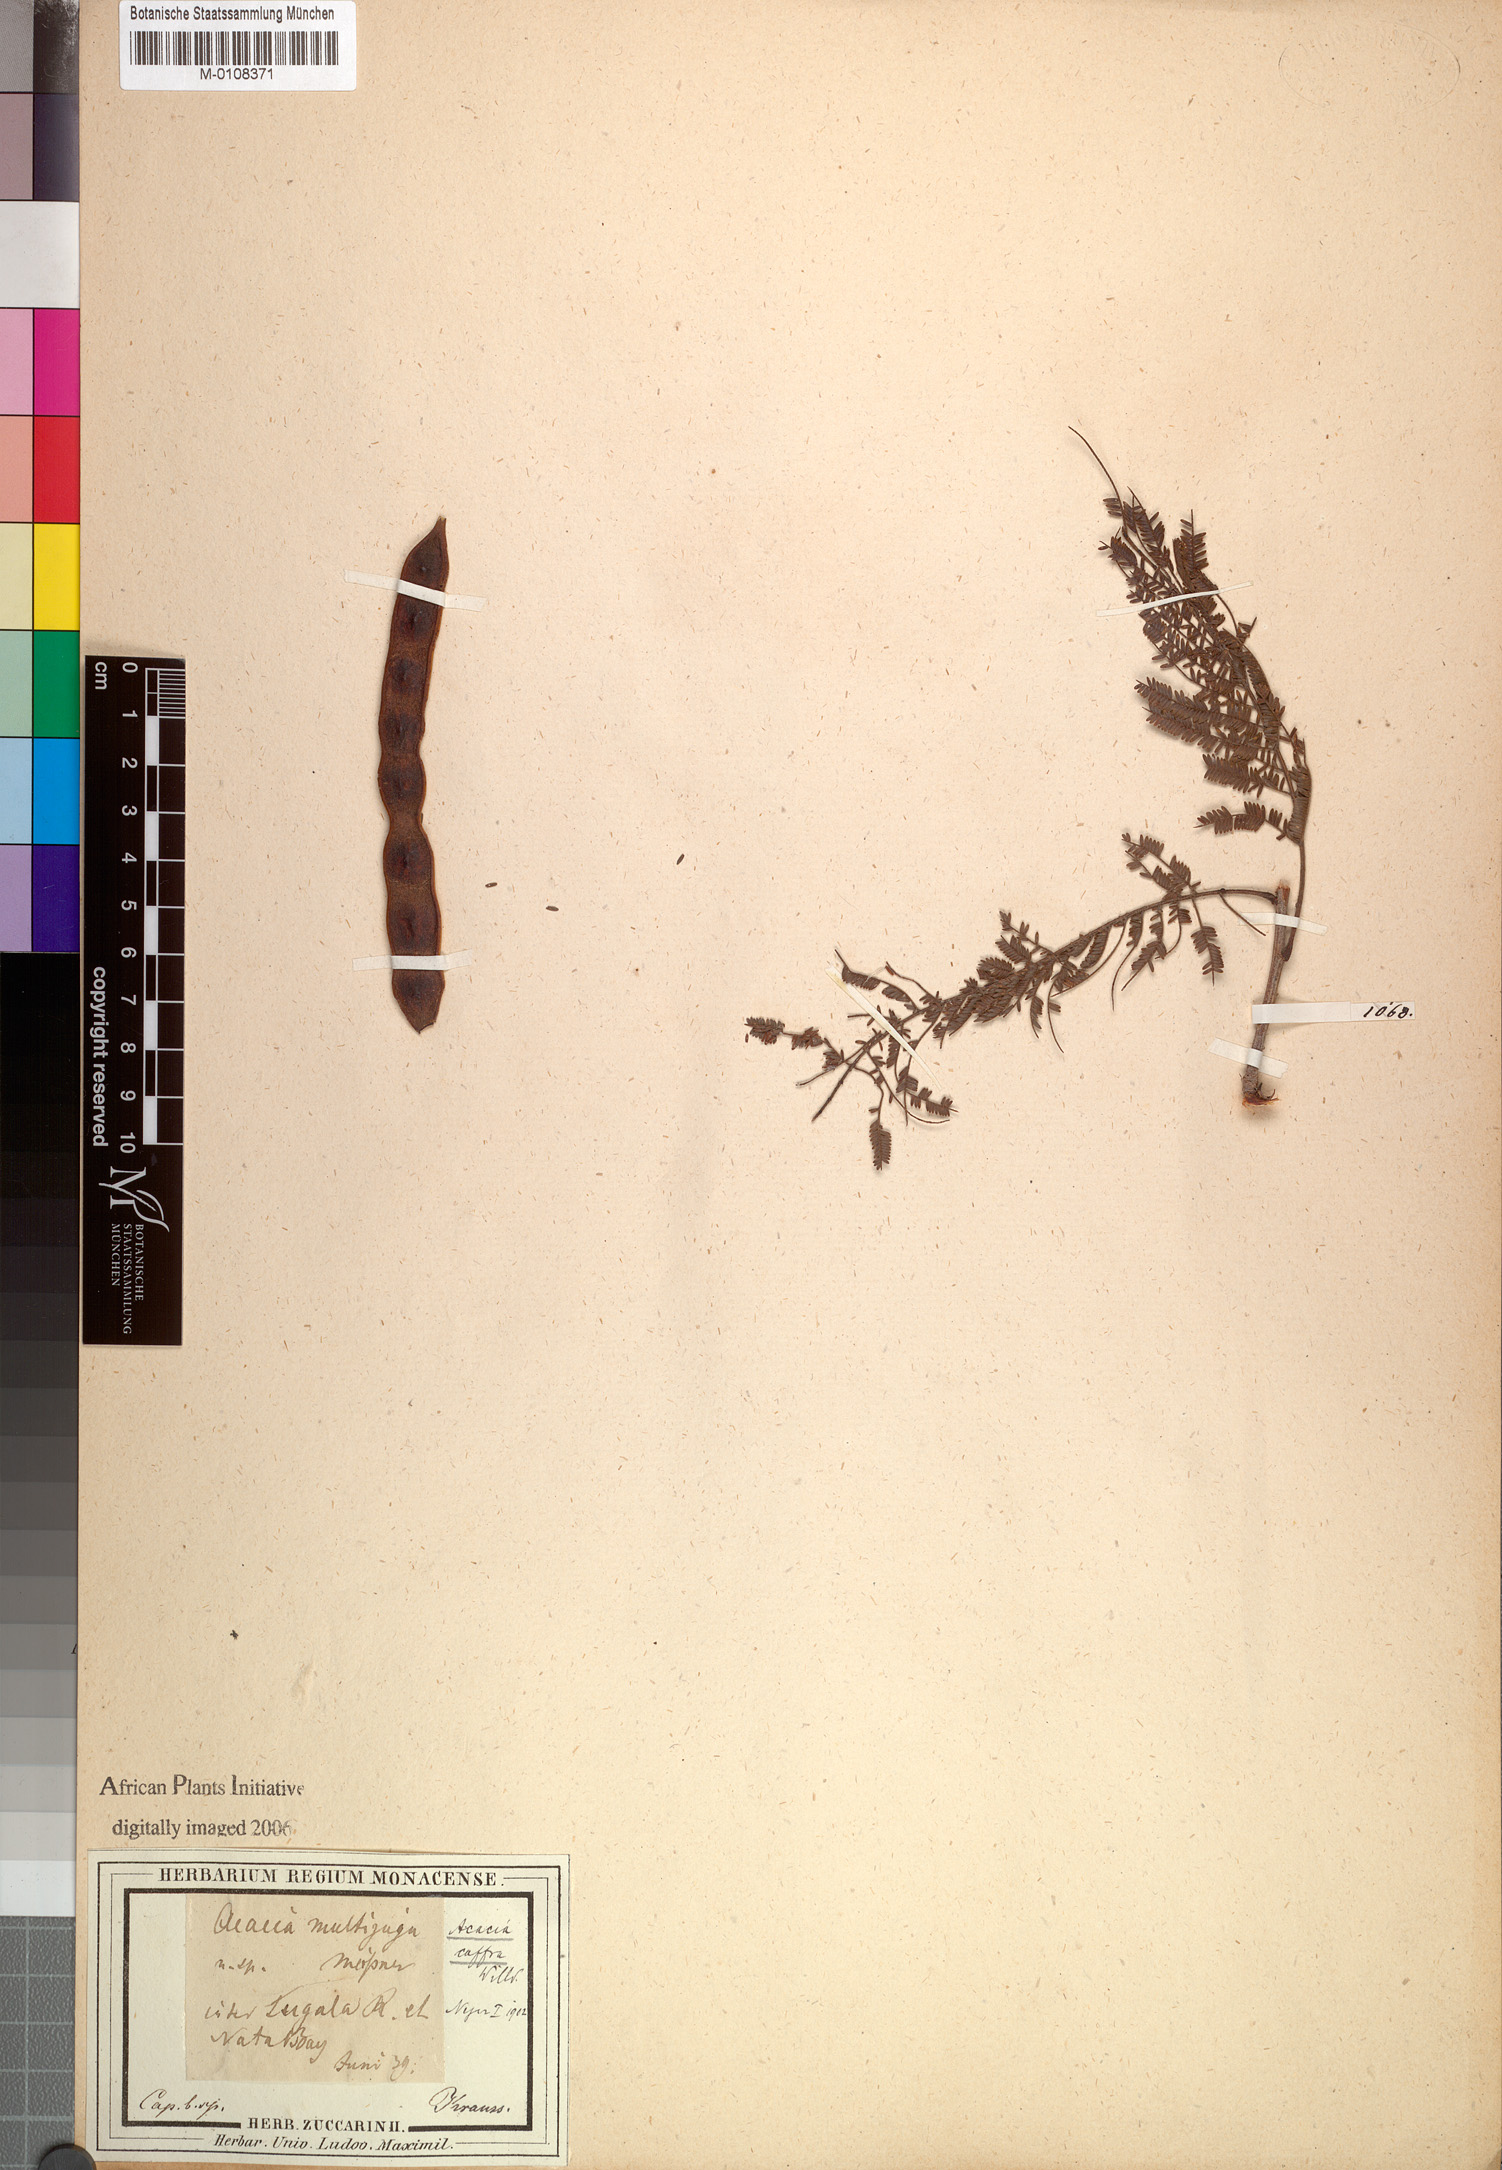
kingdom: Plantae
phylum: Tracheophyta
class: Magnoliopsida
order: Fabales
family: Fabaceae
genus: Senegalia
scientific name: Senegalia caffra
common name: Cat thorn
